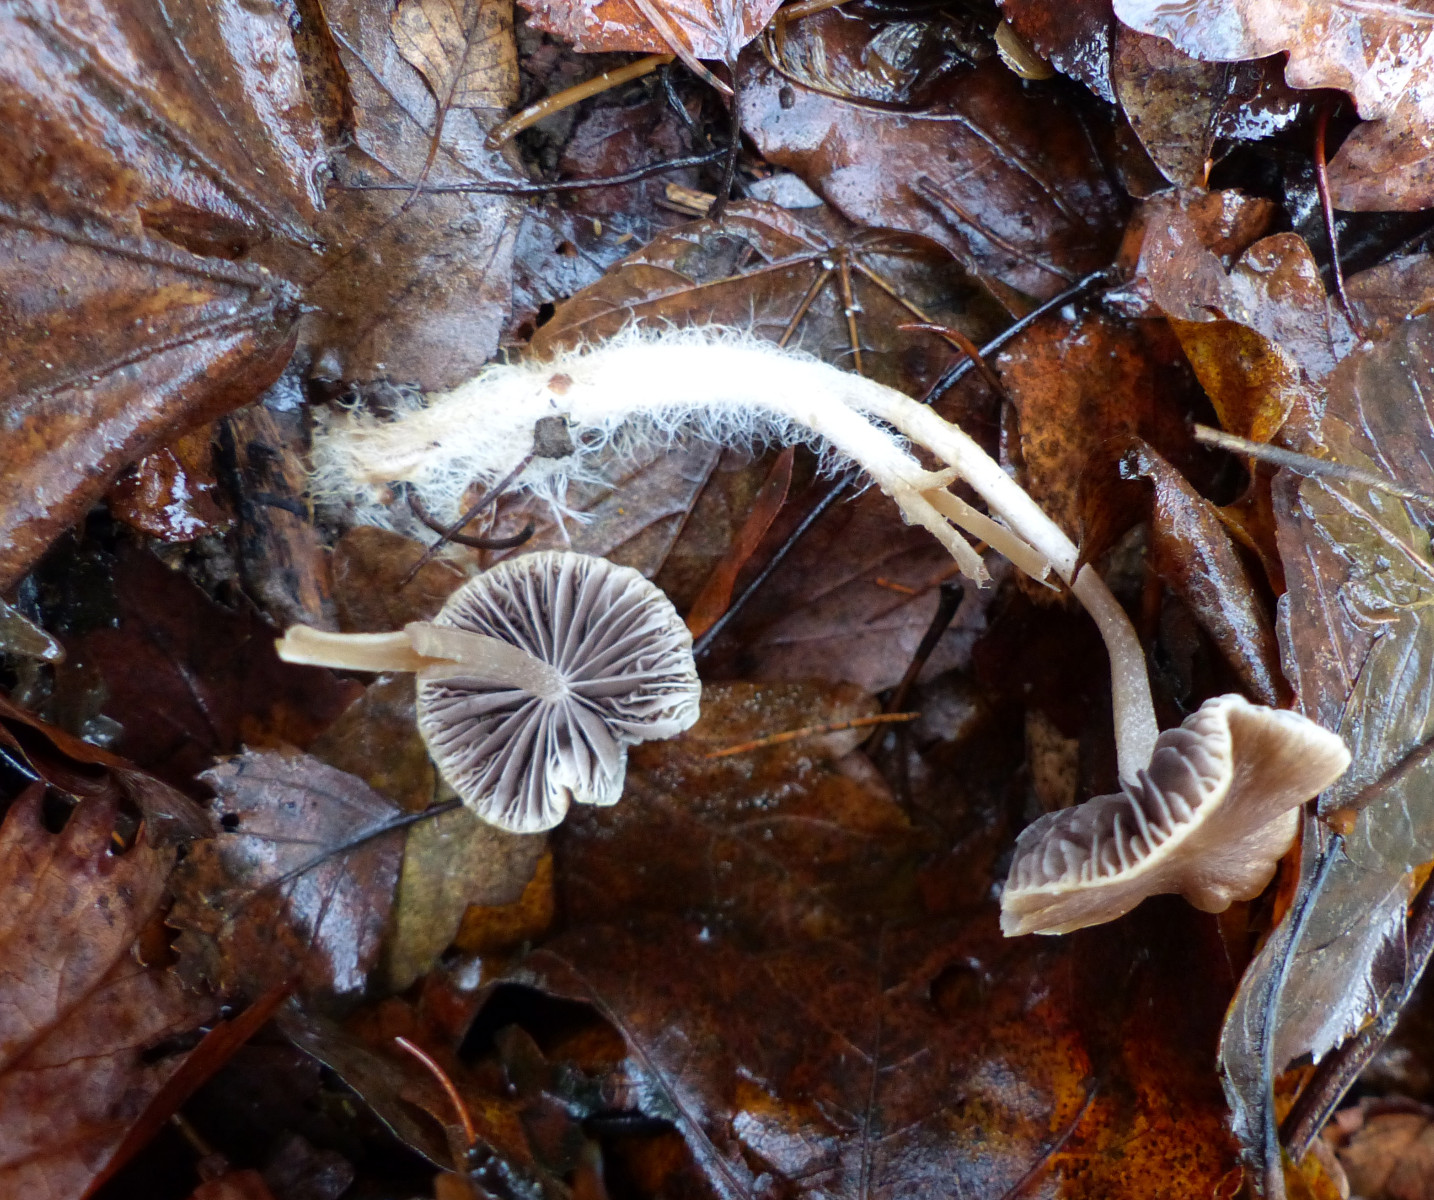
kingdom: Fungi
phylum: Basidiomycota
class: Agaricomycetes
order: Agaricales
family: Psathyrellaceae
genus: Psathyrella
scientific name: Psathyrella
